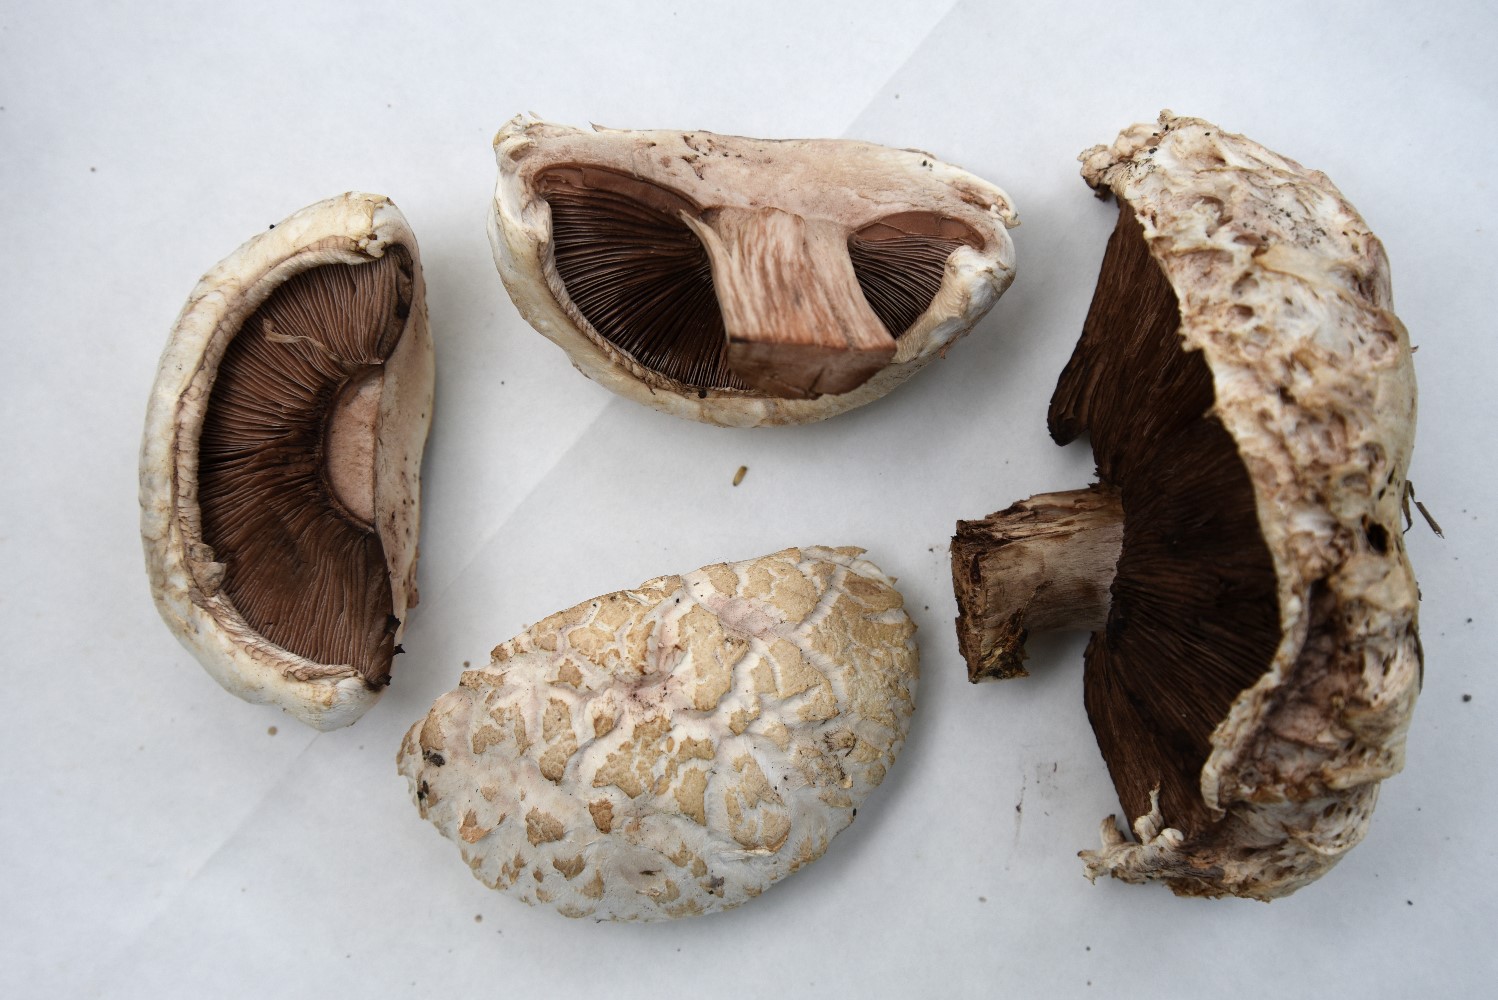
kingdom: Fungi
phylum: Basidiomycota
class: Agaricomycetes
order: Agaricales
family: Agaricaceae
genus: Agaricus
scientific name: Agaricus bernardii
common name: strandengs-champignon
